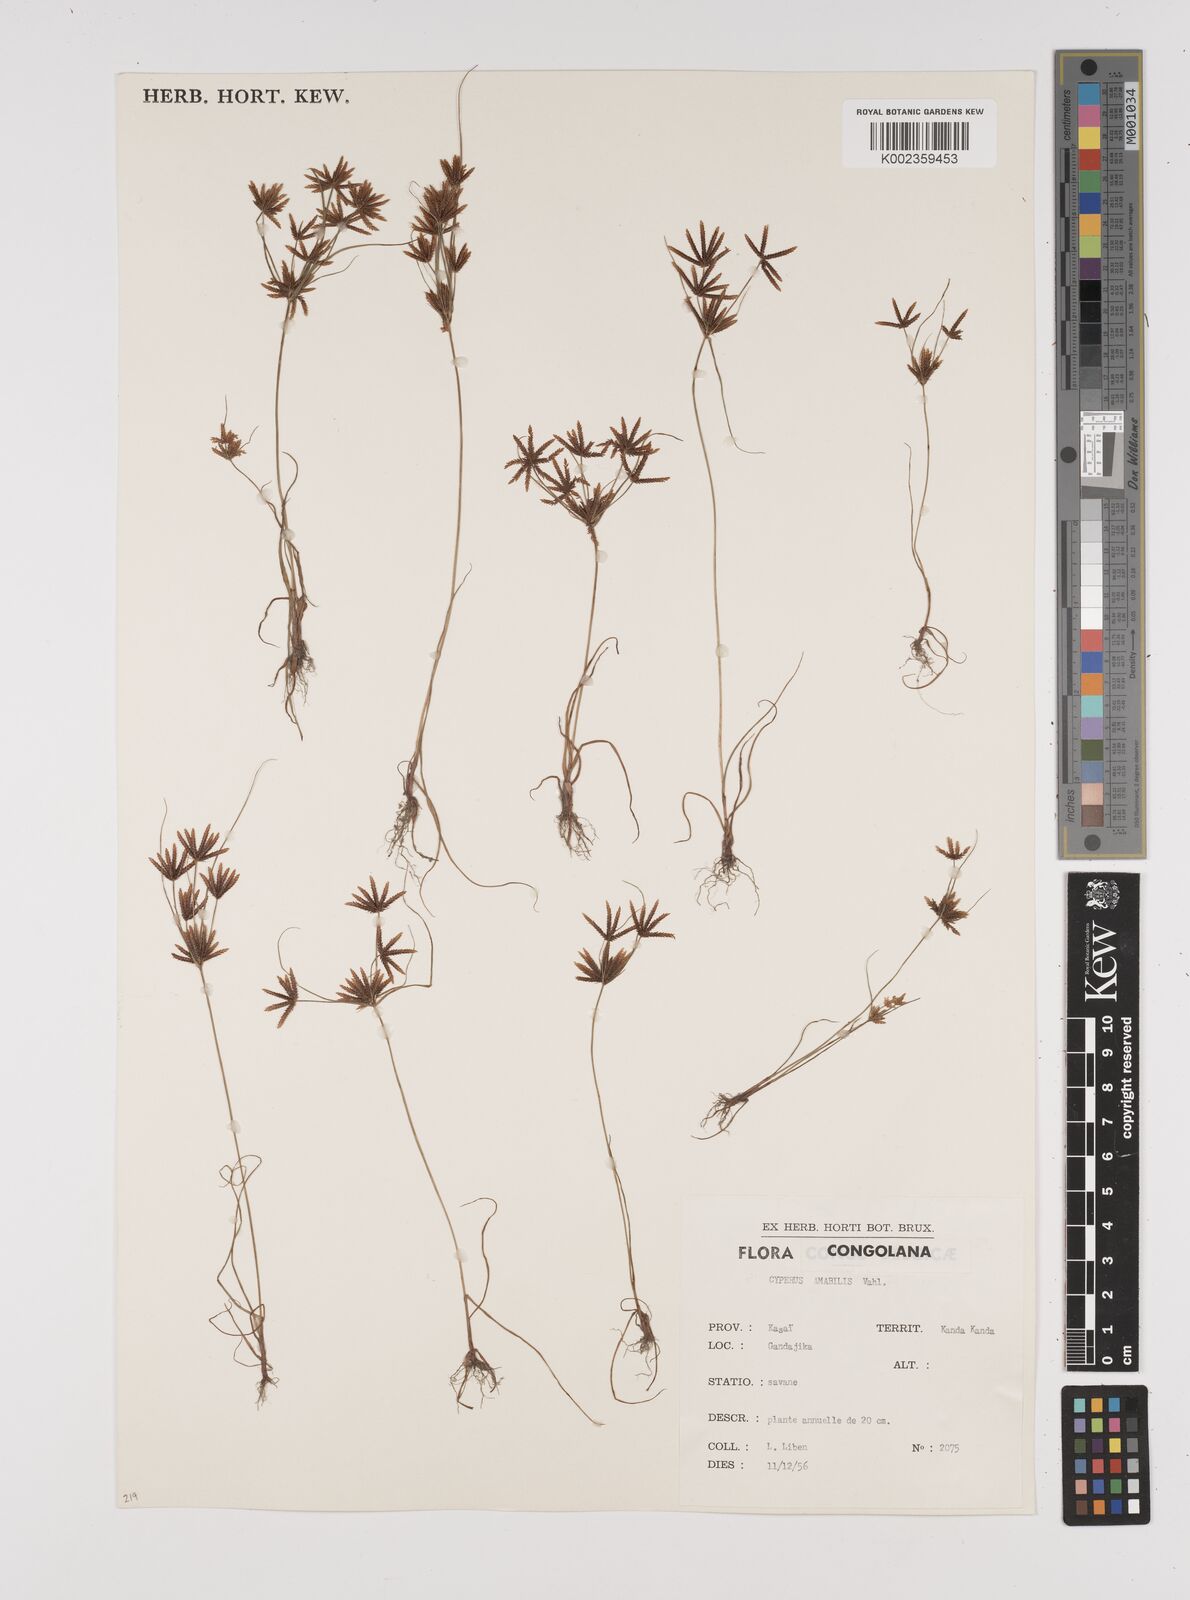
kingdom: Plantae
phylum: Tracheophyta
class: Liliopsida
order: Poales
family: Cyperaceae
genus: Cyperus
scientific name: Cyperus amabilis
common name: Foothill flat sedge
